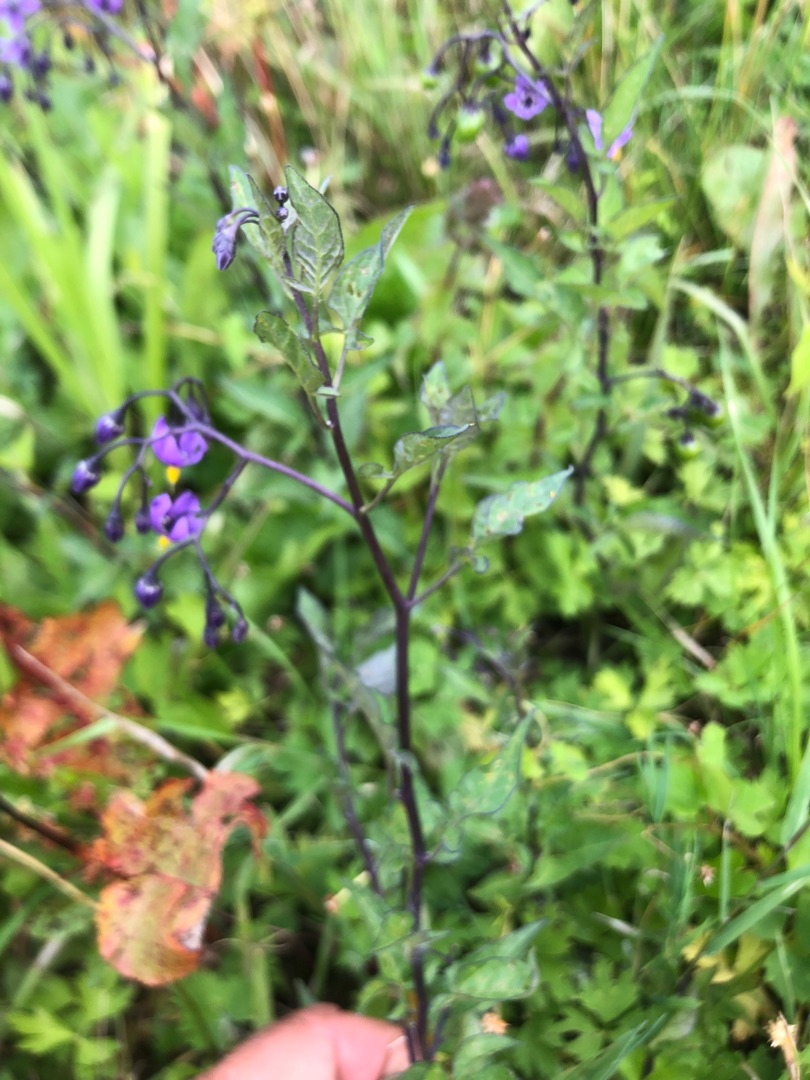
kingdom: Plantae
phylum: Tracheophyta
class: Magnoliopsida
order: Solanales
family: Solanaceae
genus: Solanum
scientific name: Solanum dulcamara
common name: Bittersød natskygge
